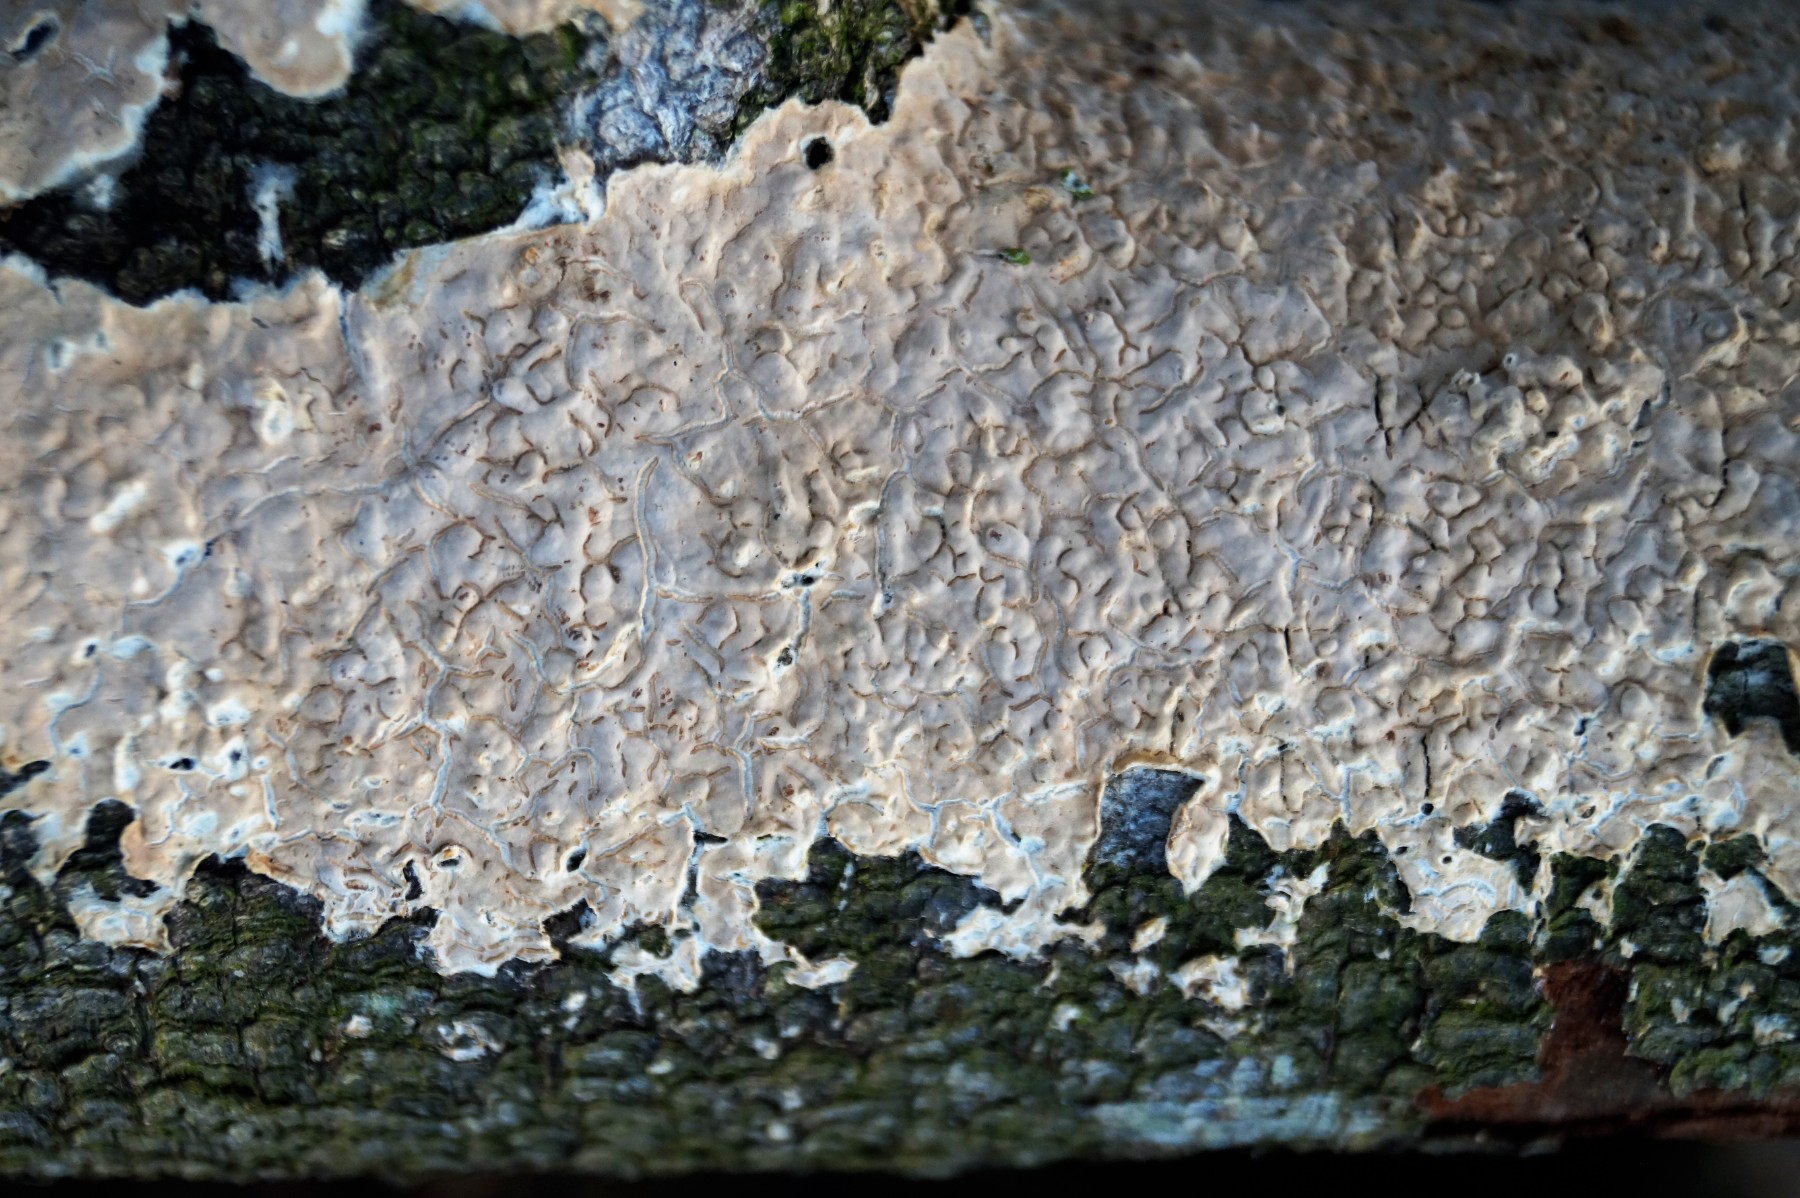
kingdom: Fungi
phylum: Basidiomycota
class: Agaricomycetes
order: Agaricales
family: Physalacriaceae
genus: Cylindrobasidium
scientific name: Cylindrobasidium evolvens
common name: sprækkehinde
